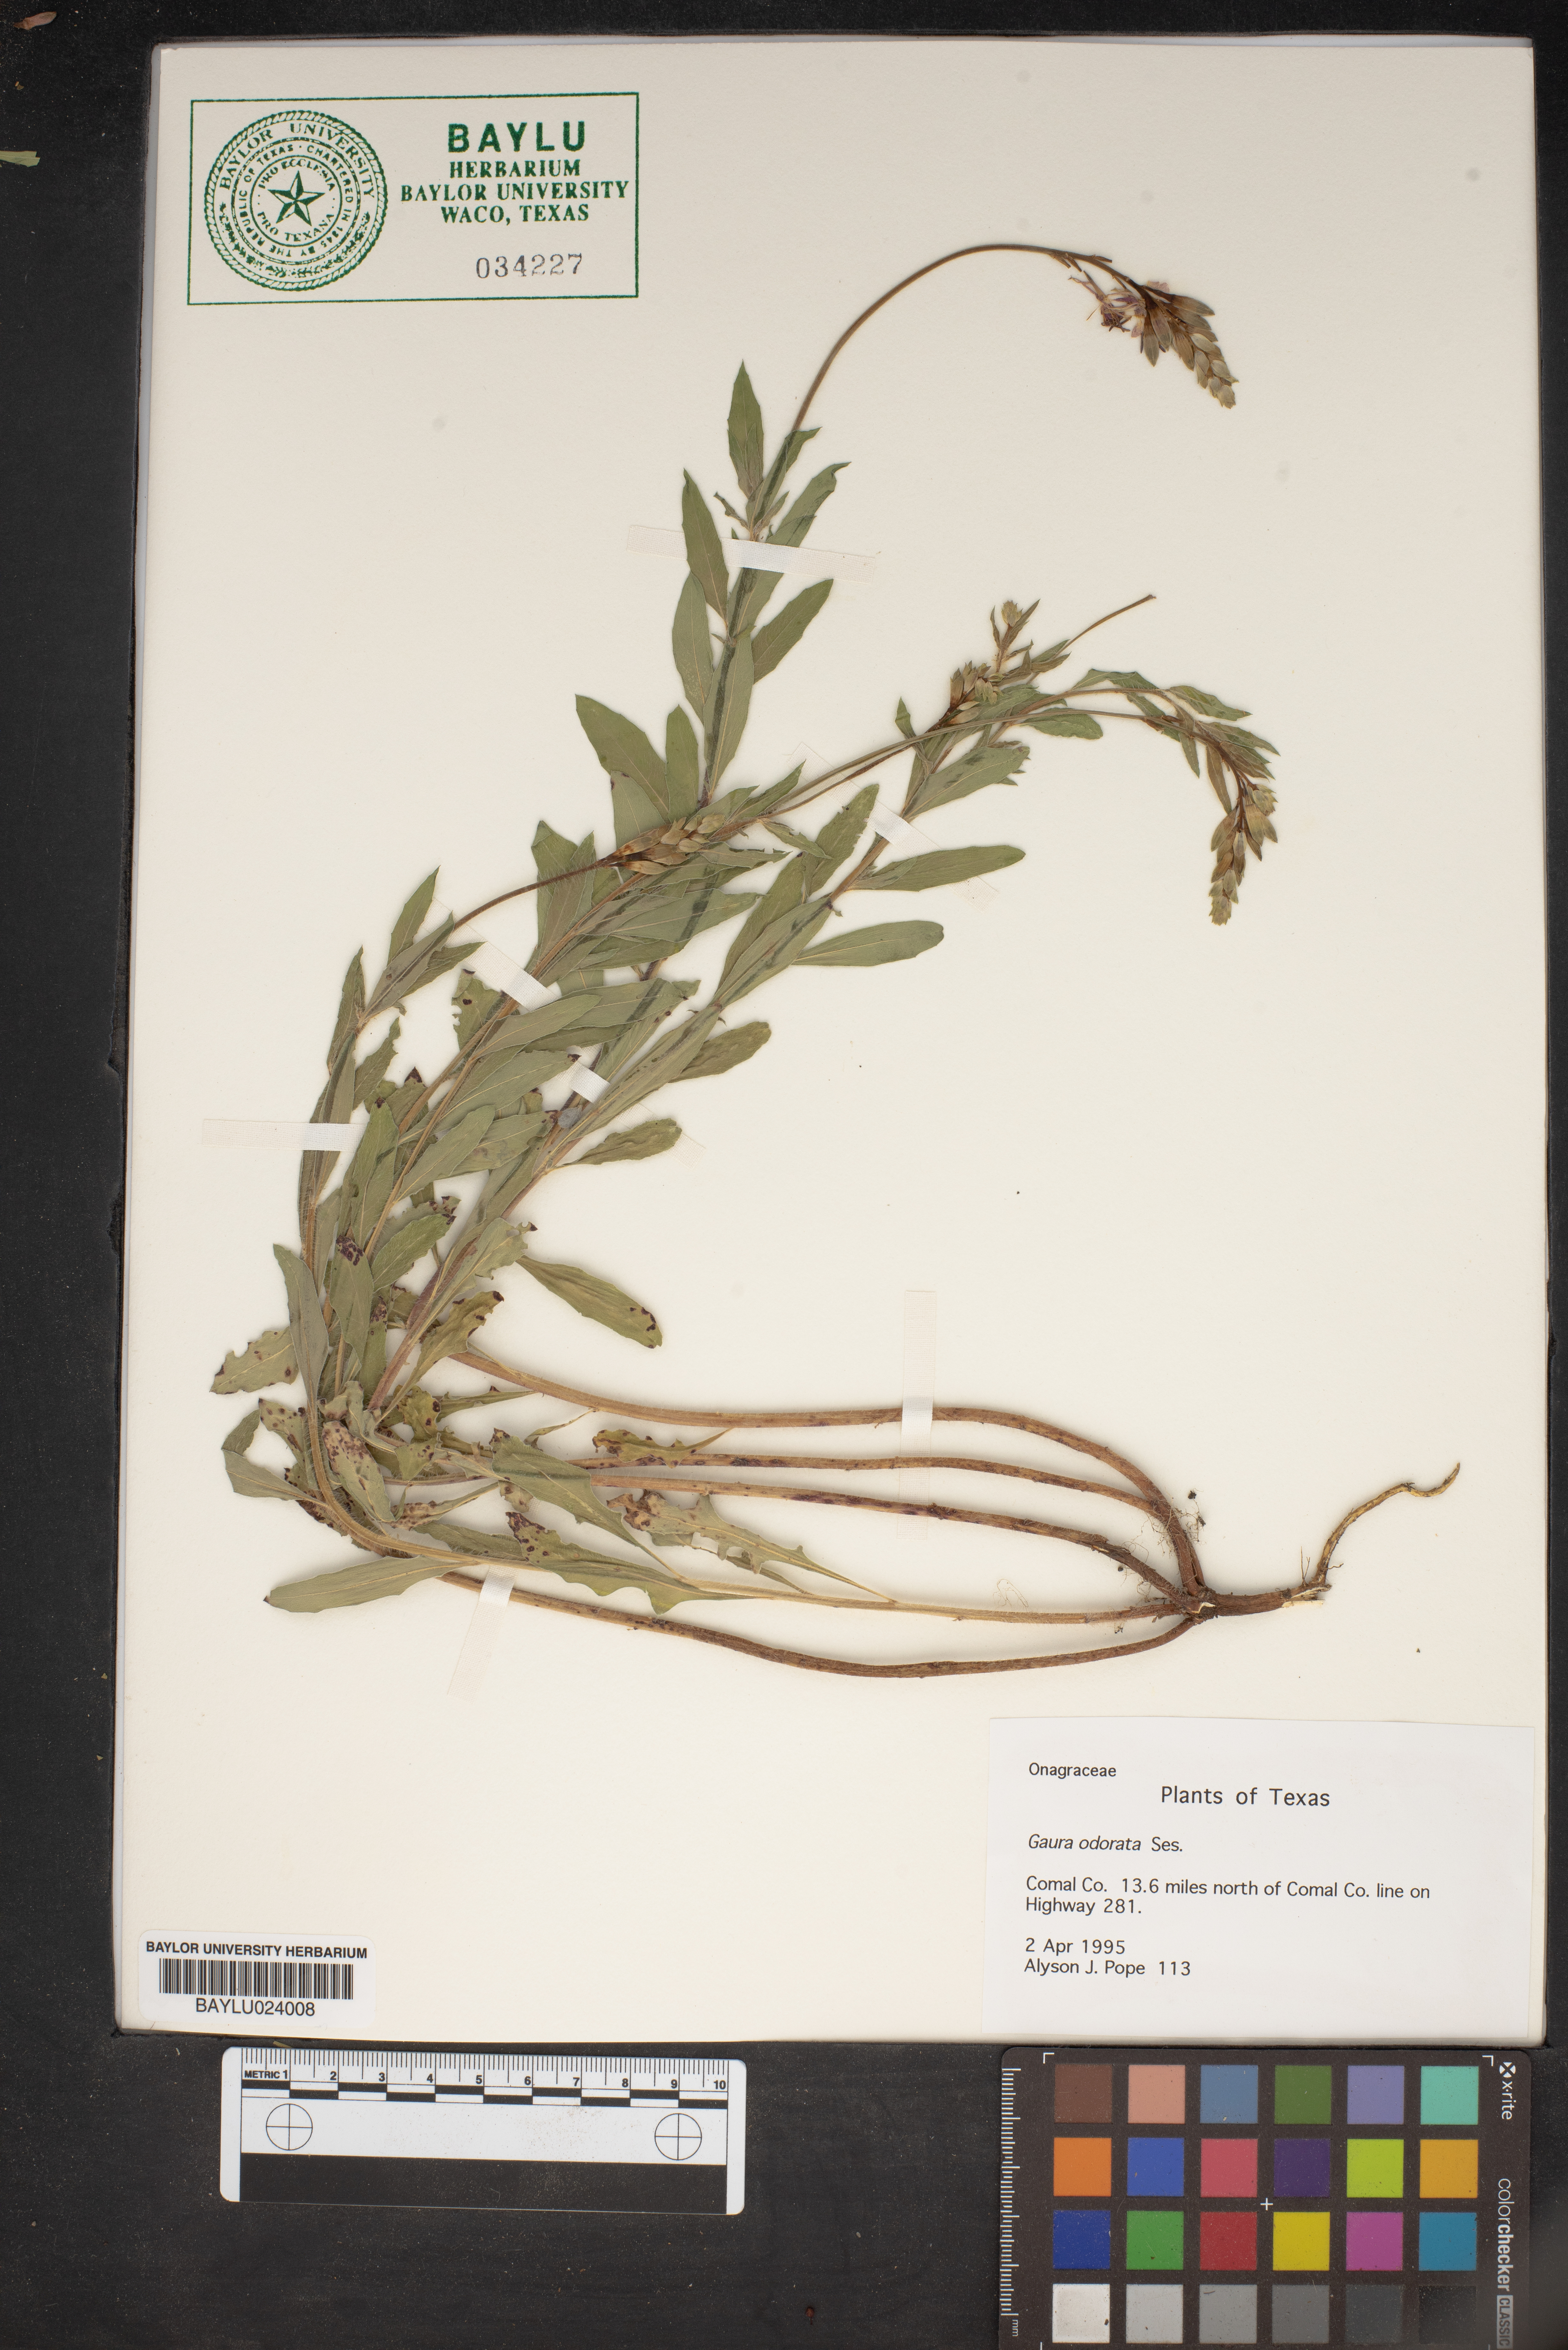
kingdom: Plantae
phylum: Tracheophyta
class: Magnoliopsida
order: Myrtales
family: Onagraceae
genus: Oenothera
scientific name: Oenothera
